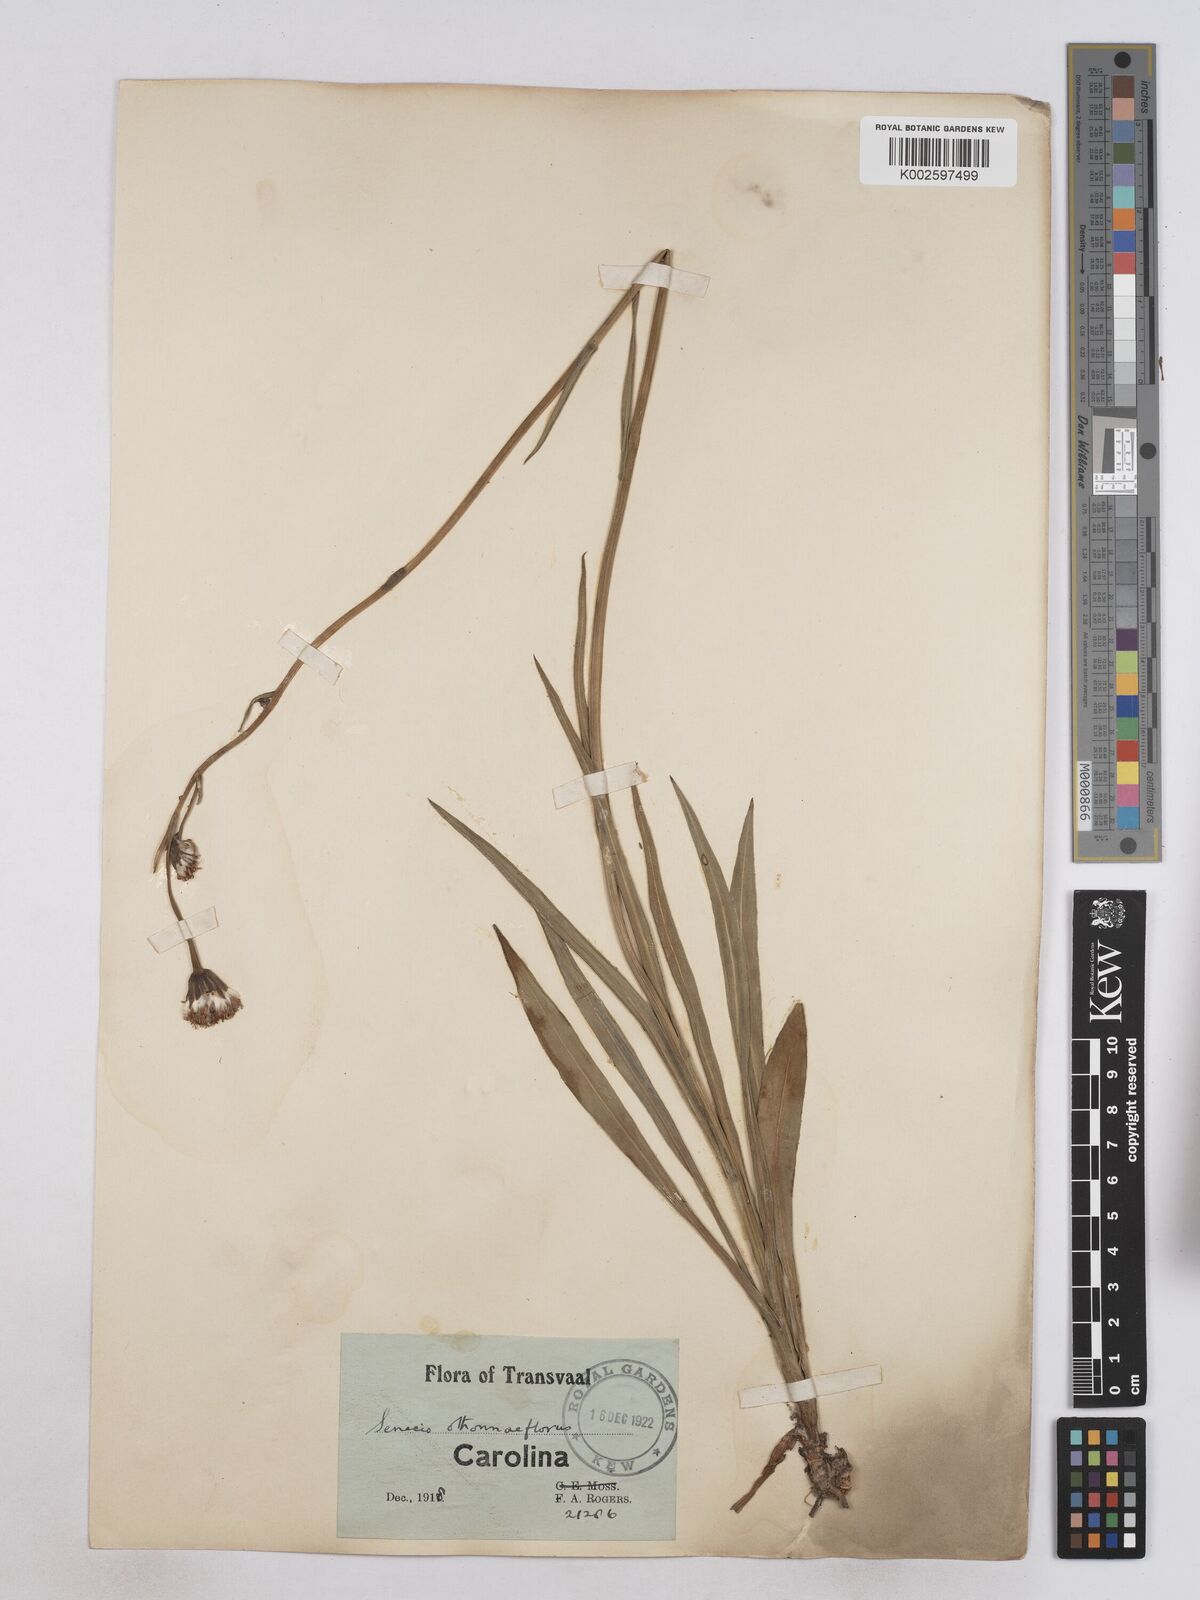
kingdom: Plantae
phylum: Tracheophyta
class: Magnoliopsida
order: Asterales
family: Asteraceae
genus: Senecio
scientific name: Senecio othonniflorus
